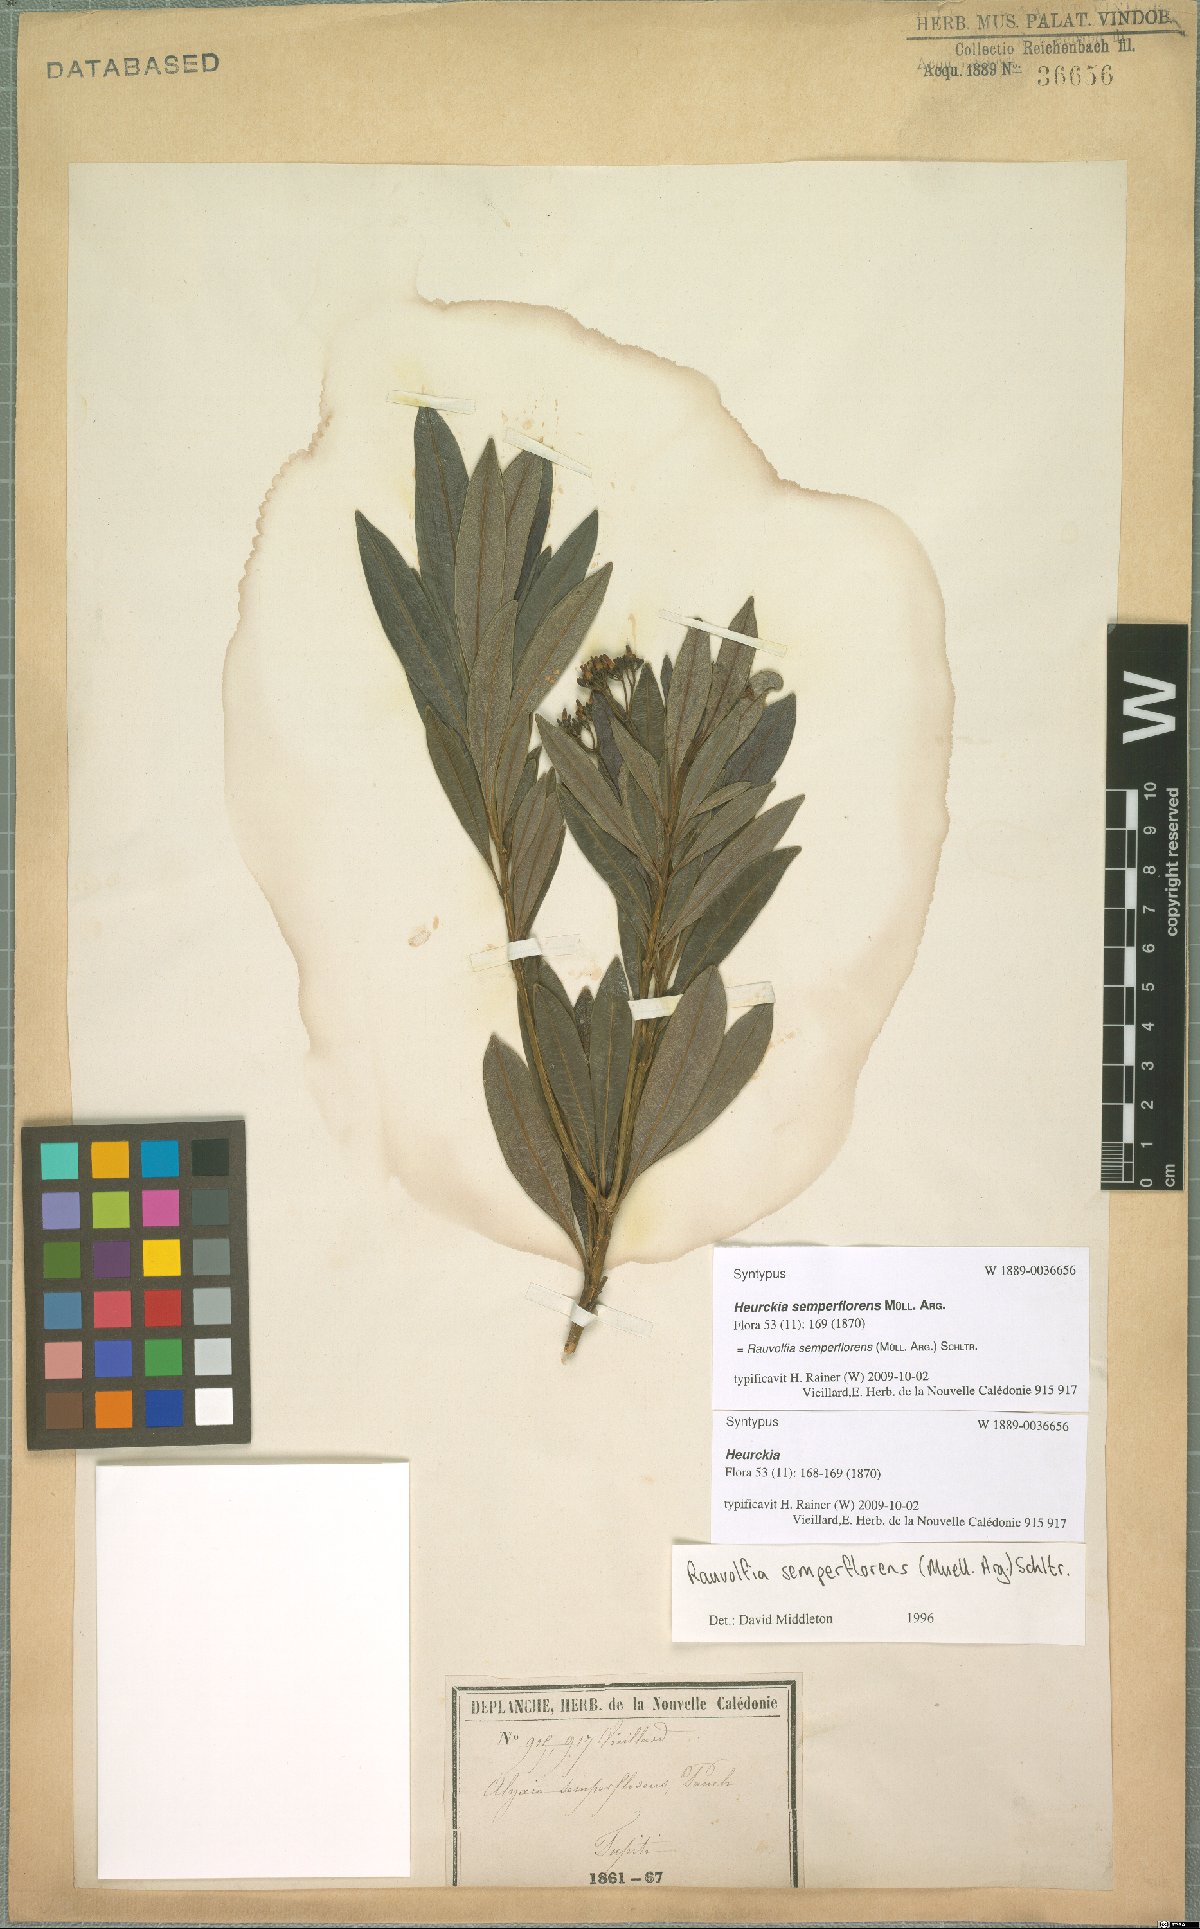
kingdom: Plantae
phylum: Tracheophyta
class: Magnoliopsida
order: Gentianales
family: Apocynaceae
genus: Rauvolfia
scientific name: Rauvolfia semperflorens
